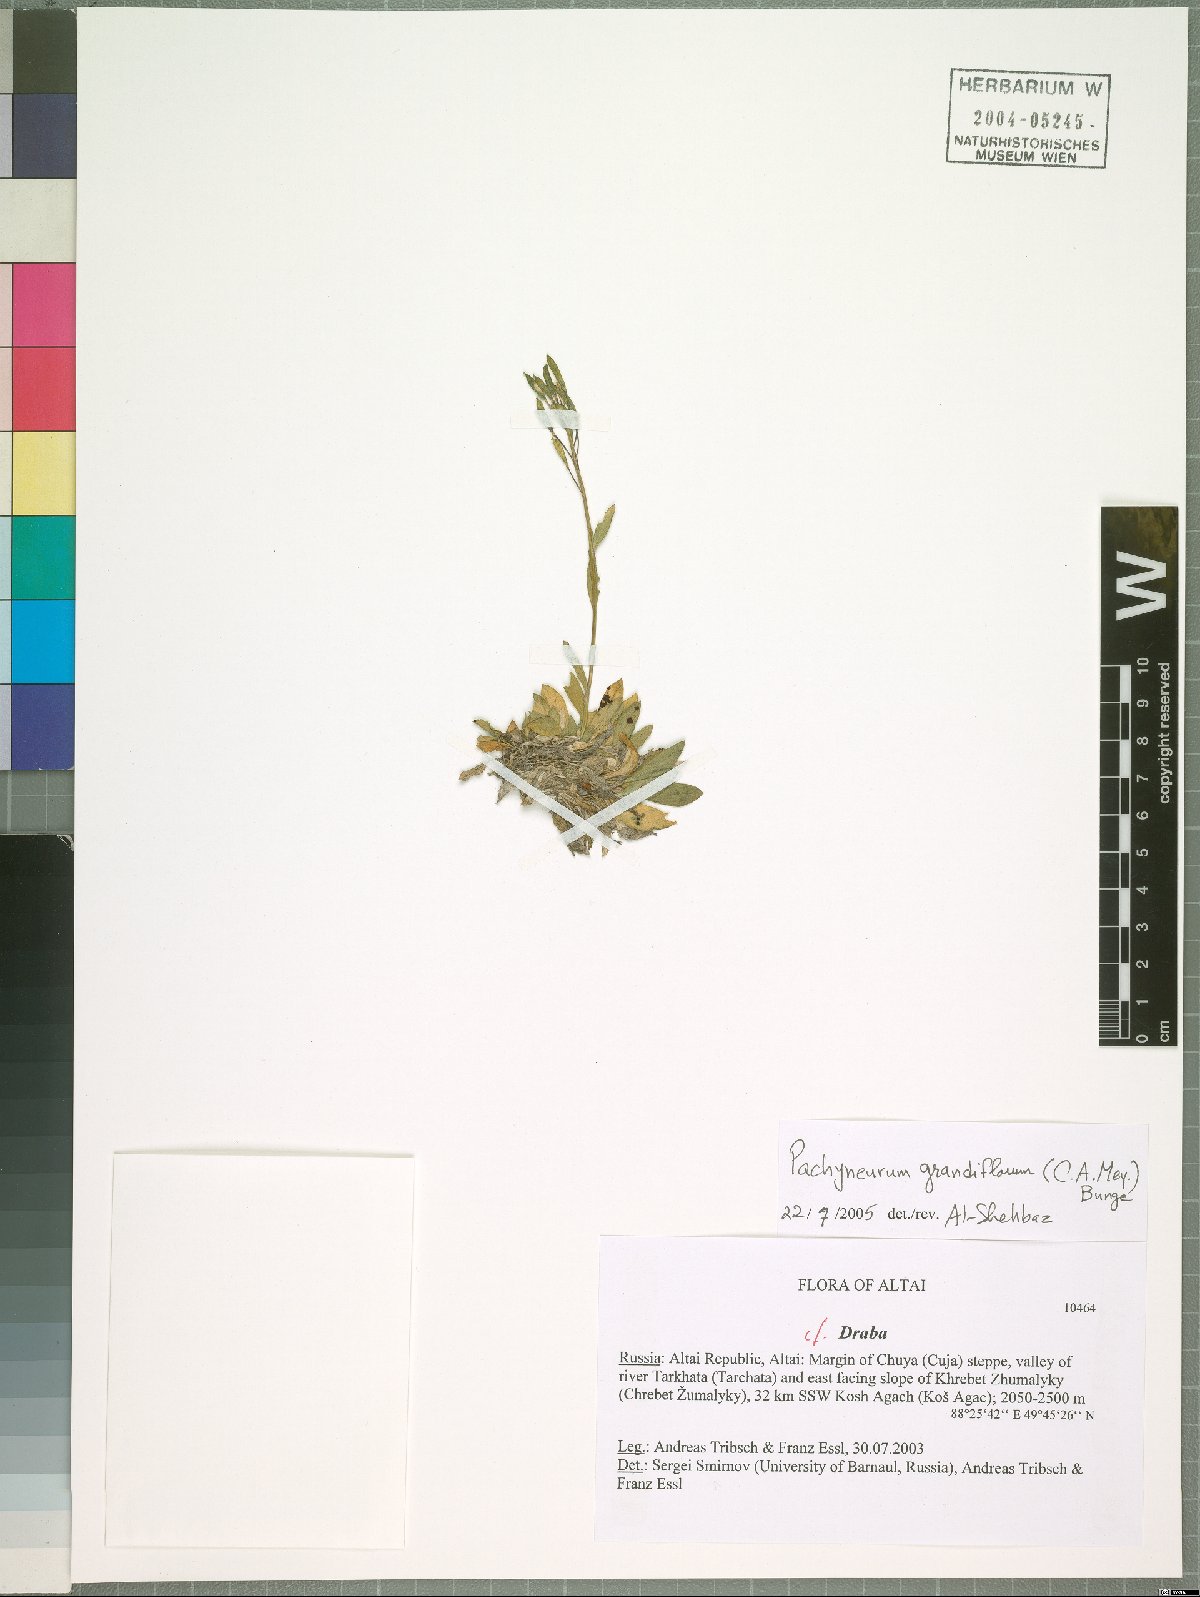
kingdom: Plantae
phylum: Tracheophyta
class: Magnoliopsida
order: Brassicales
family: Brassicaceae
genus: Pachyneurum
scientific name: Pachyneurum grandiflorum
